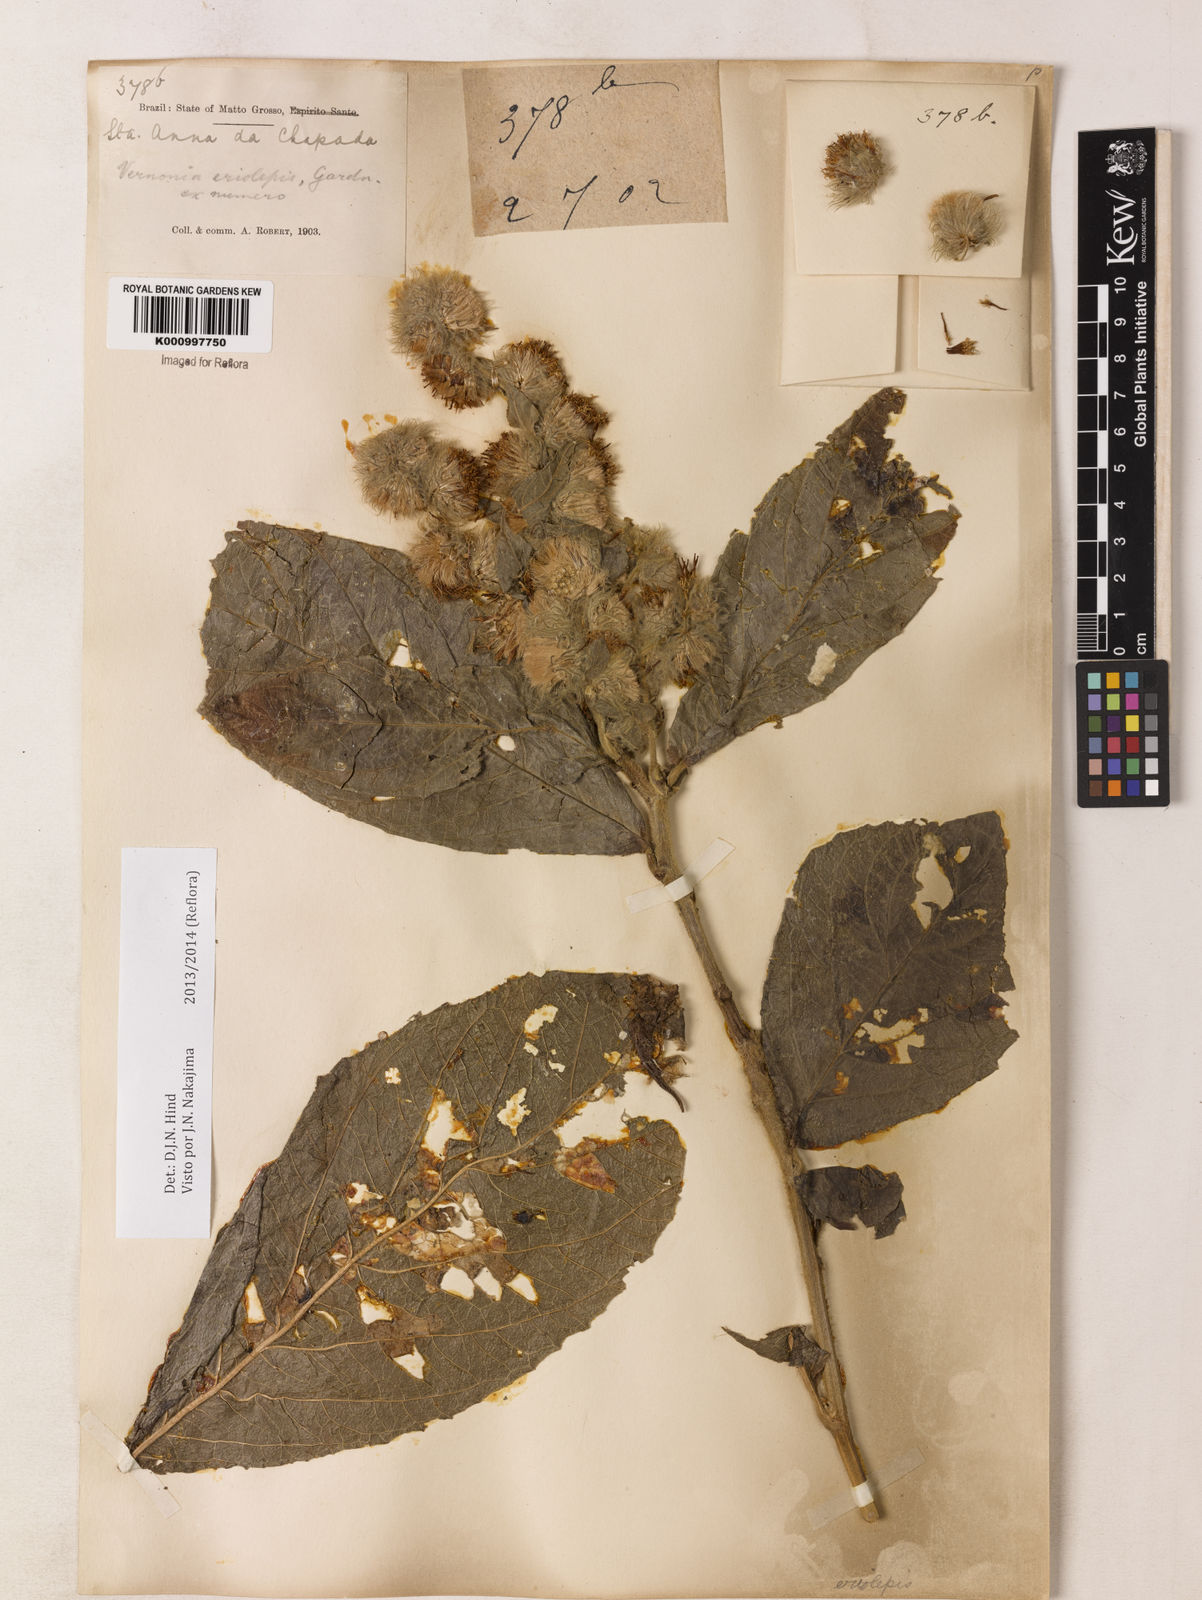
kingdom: Plantae
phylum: Tracheophyta
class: Magnoliopsida
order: Asterales
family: Asteraceae
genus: Lepidaploa
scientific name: Lepidaploa eriolepis
